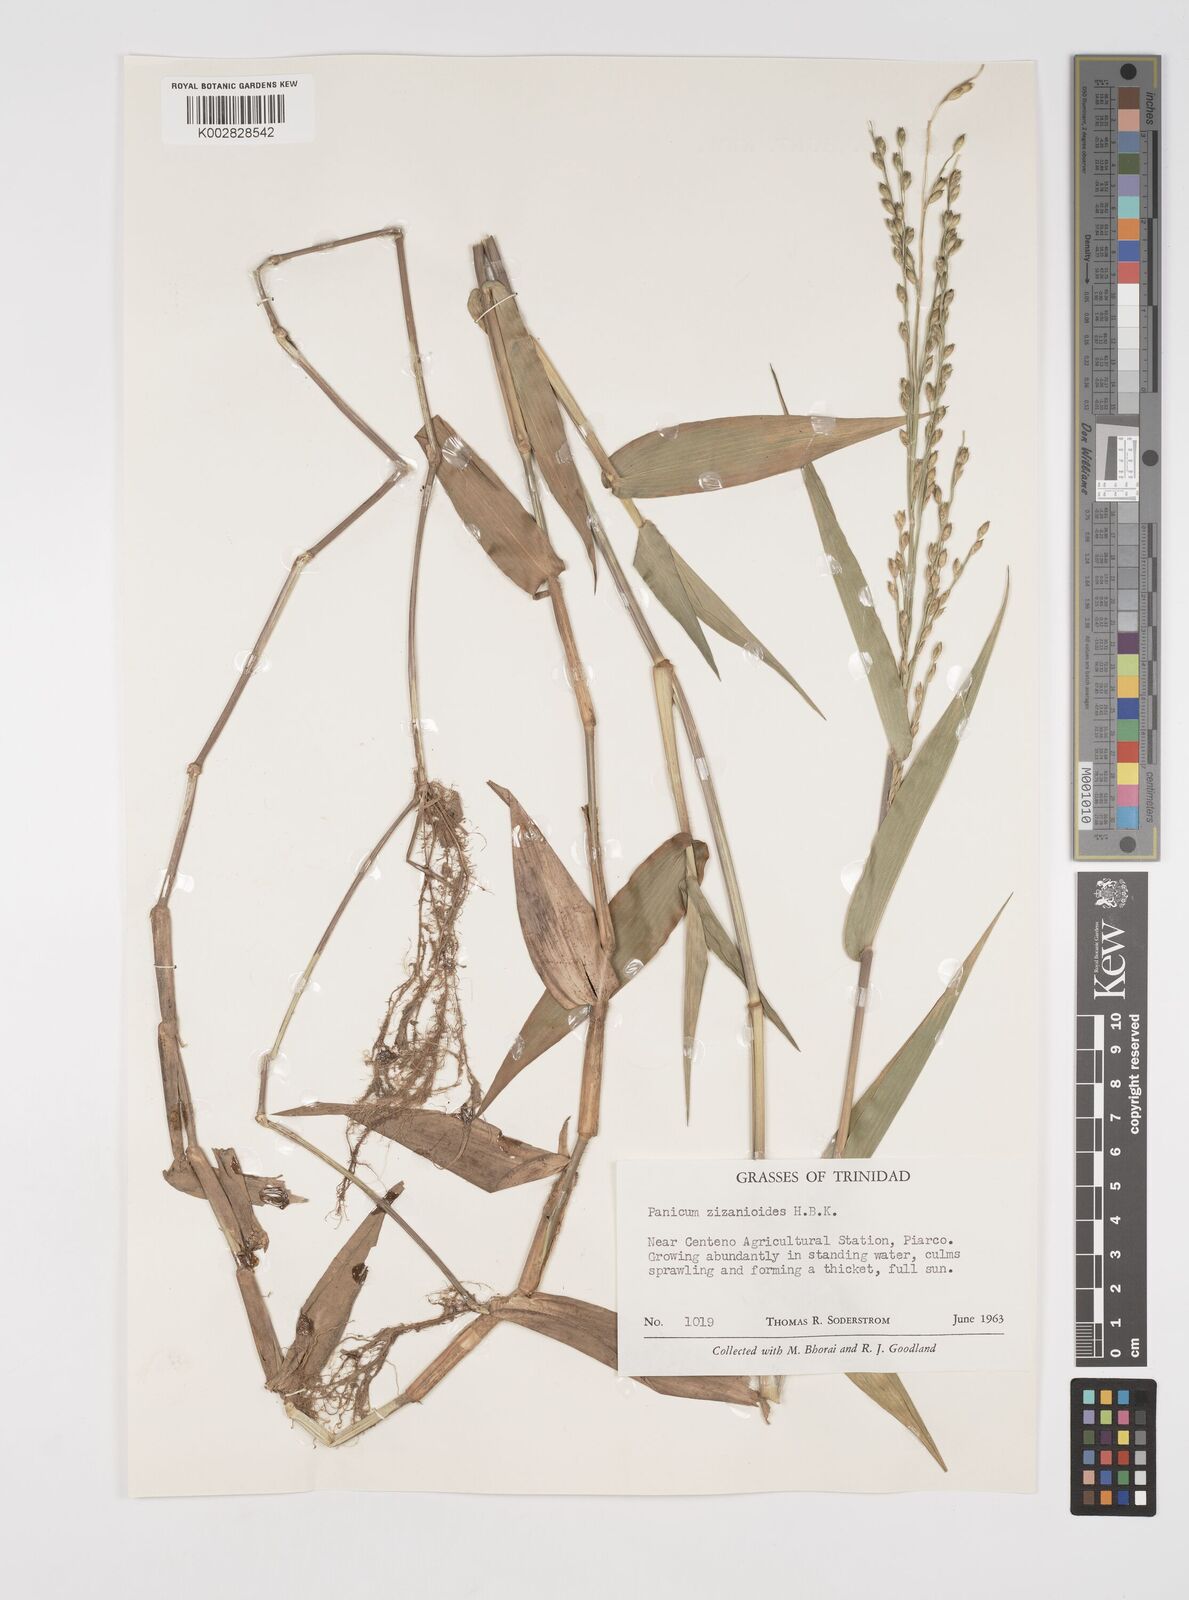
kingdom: Plantae
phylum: Tracheophyta
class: Liliopsida
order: Poales
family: Poaceae
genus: Acroceras
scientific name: Acroceras zizanioides
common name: Oat grass
